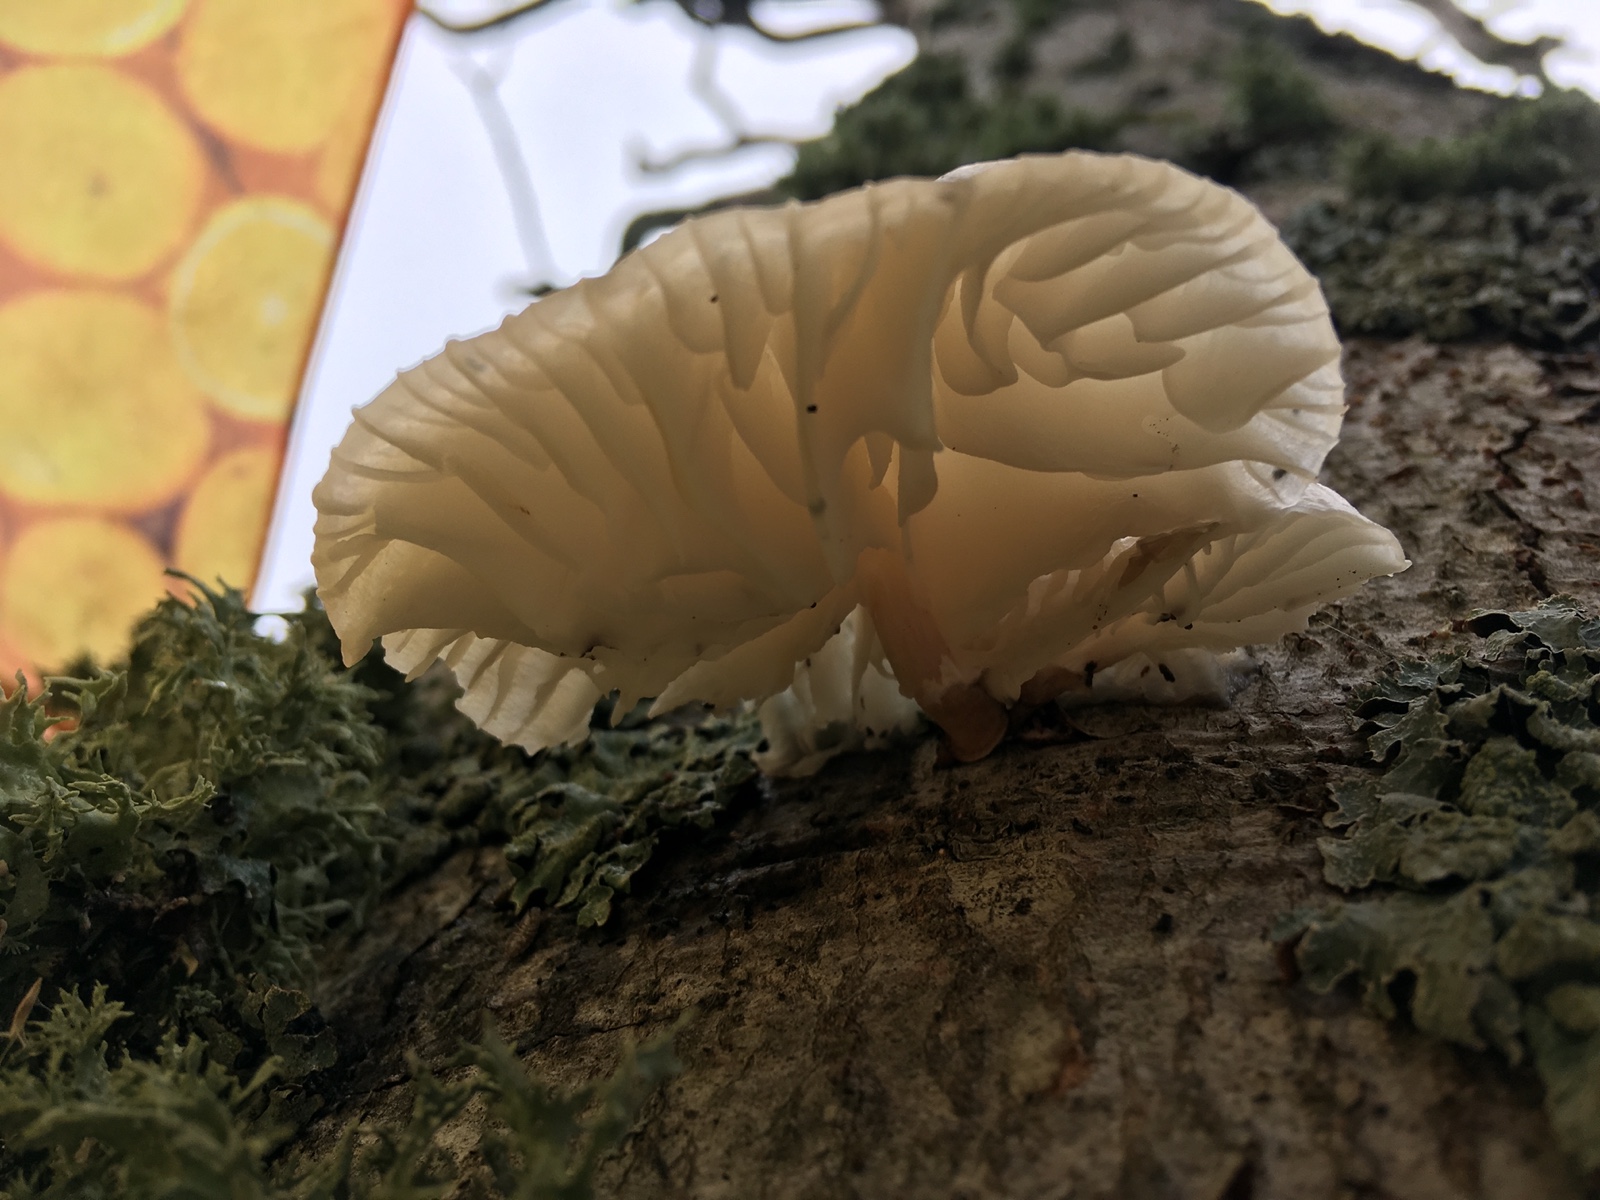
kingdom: Fungi
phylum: Basidiomycota
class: Agaricomycetes
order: Agaricales
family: Physalacriaceae
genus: Mucidula
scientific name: Mucidula mucida
